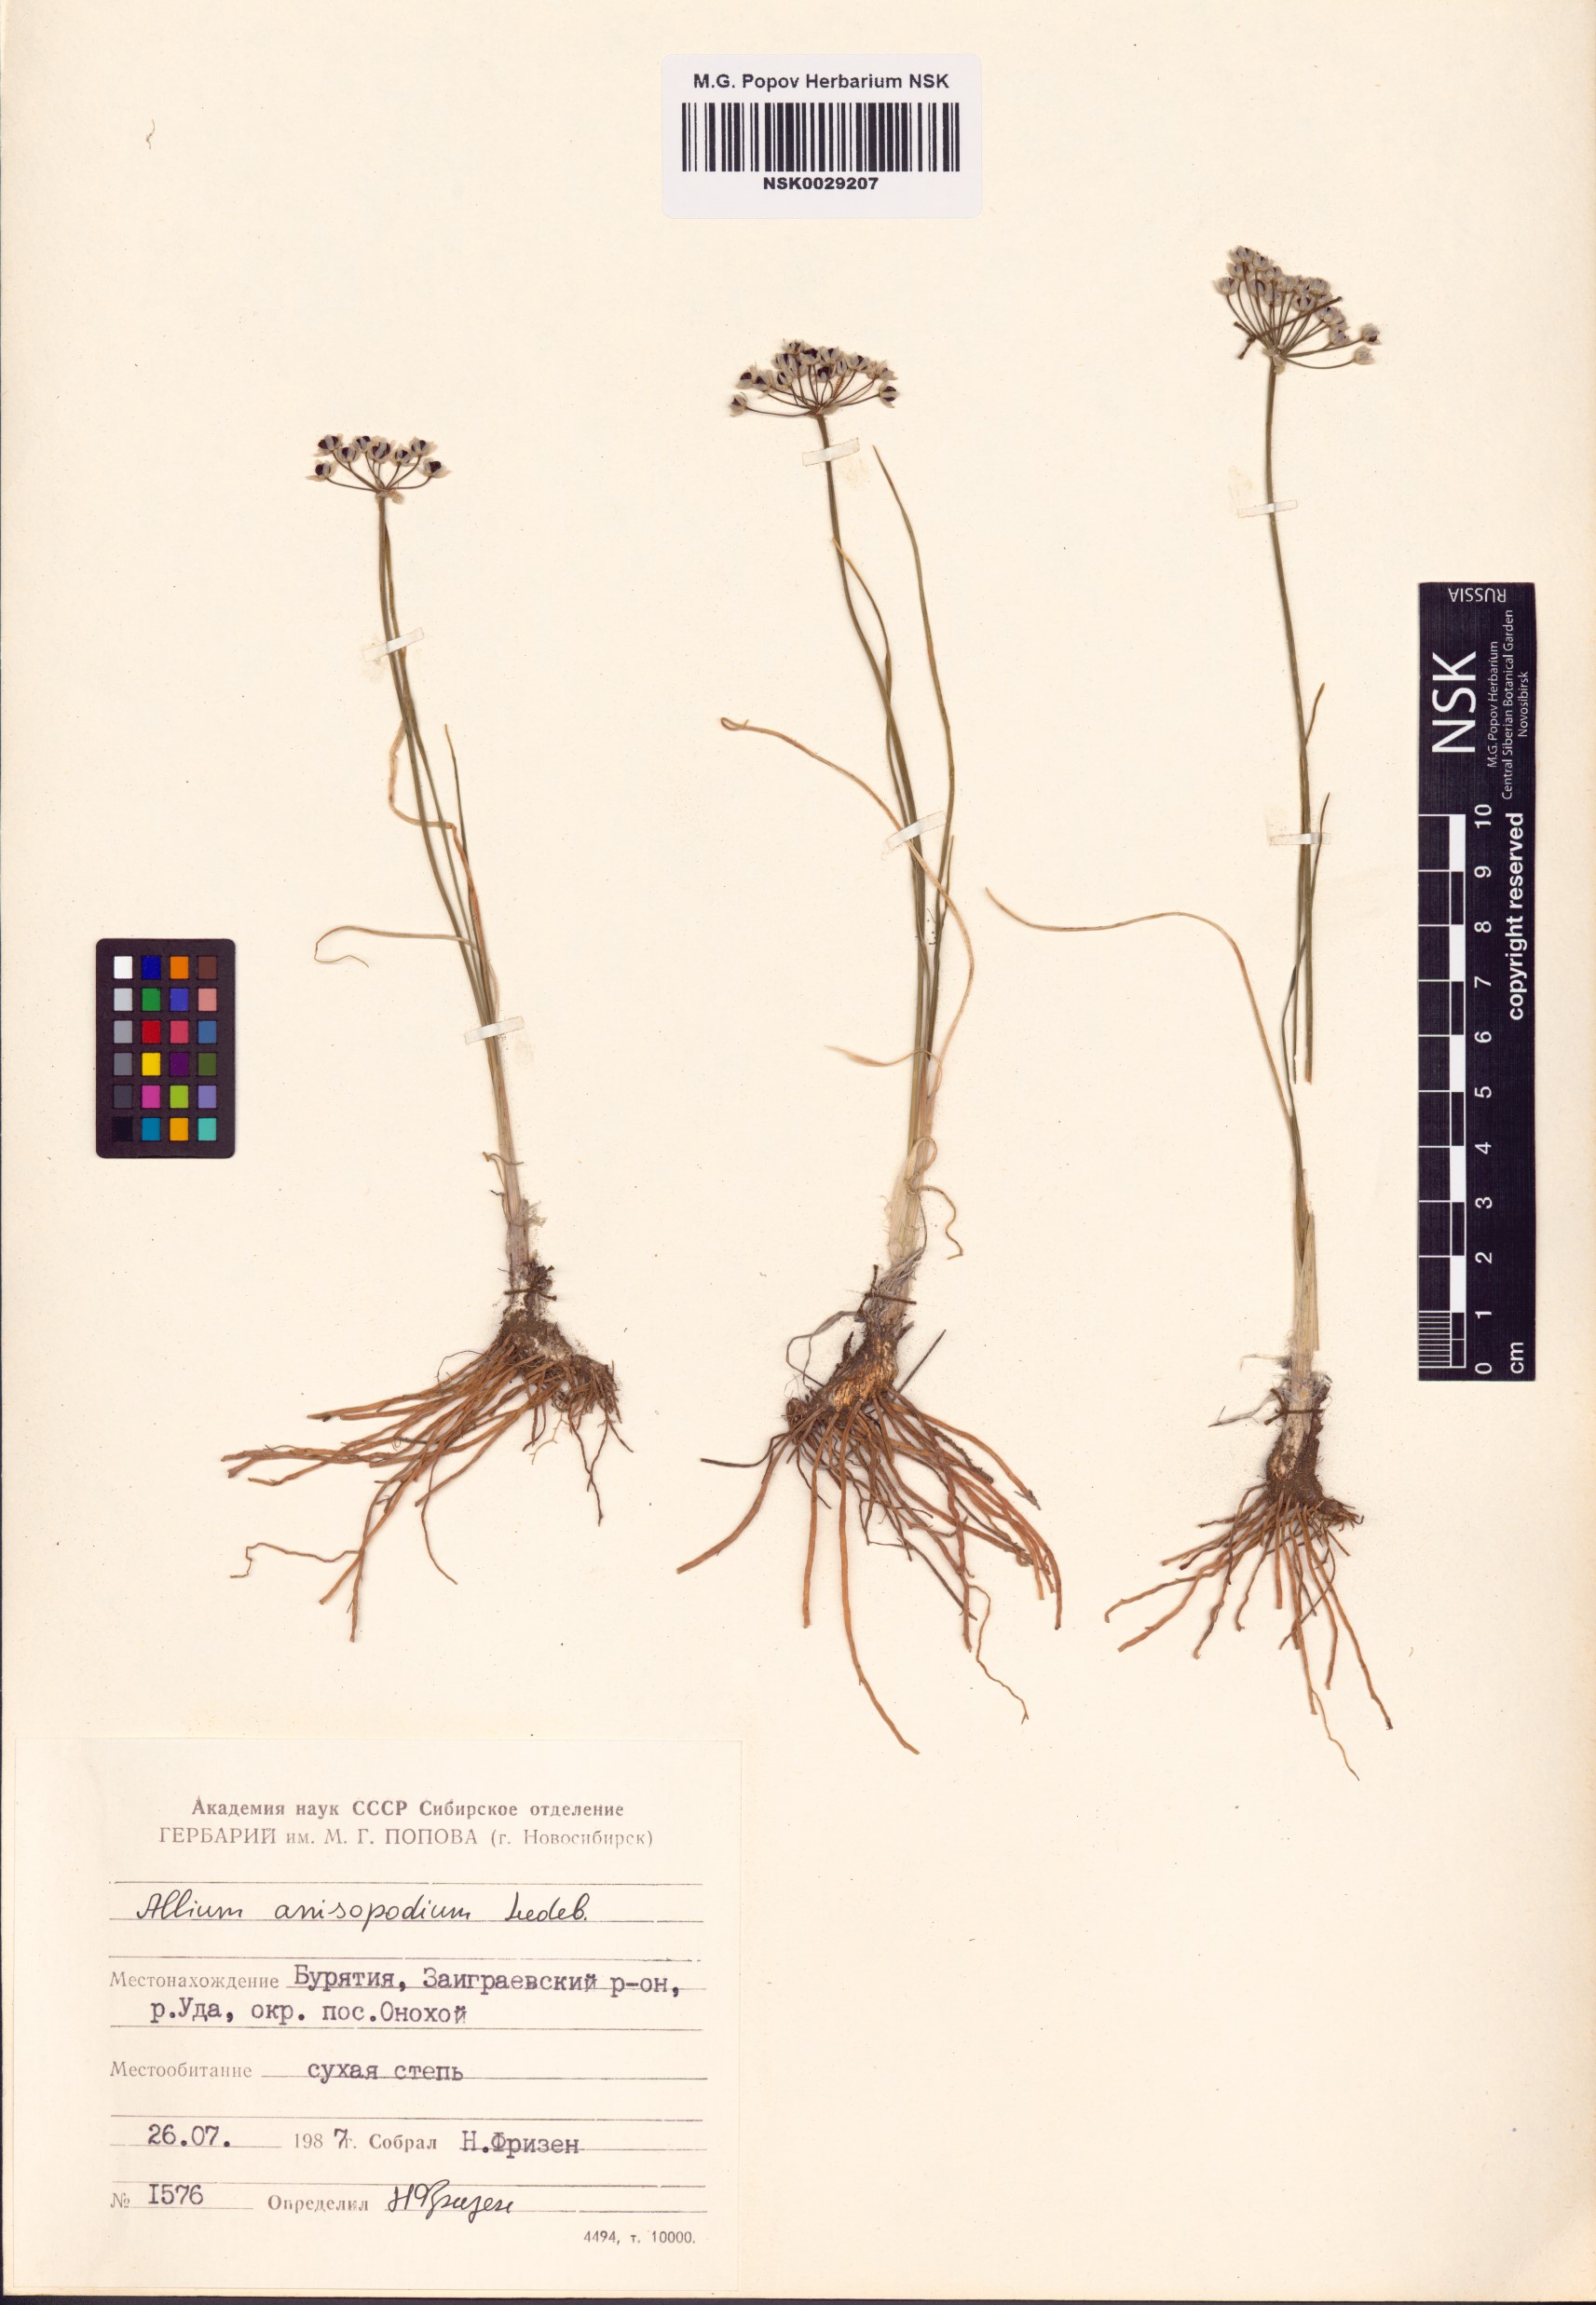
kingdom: Plantae
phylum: Tracheophyta
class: Liliopsida
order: Asparagales
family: Amaryllidaceae
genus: Allium
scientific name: Allium anisopodium
